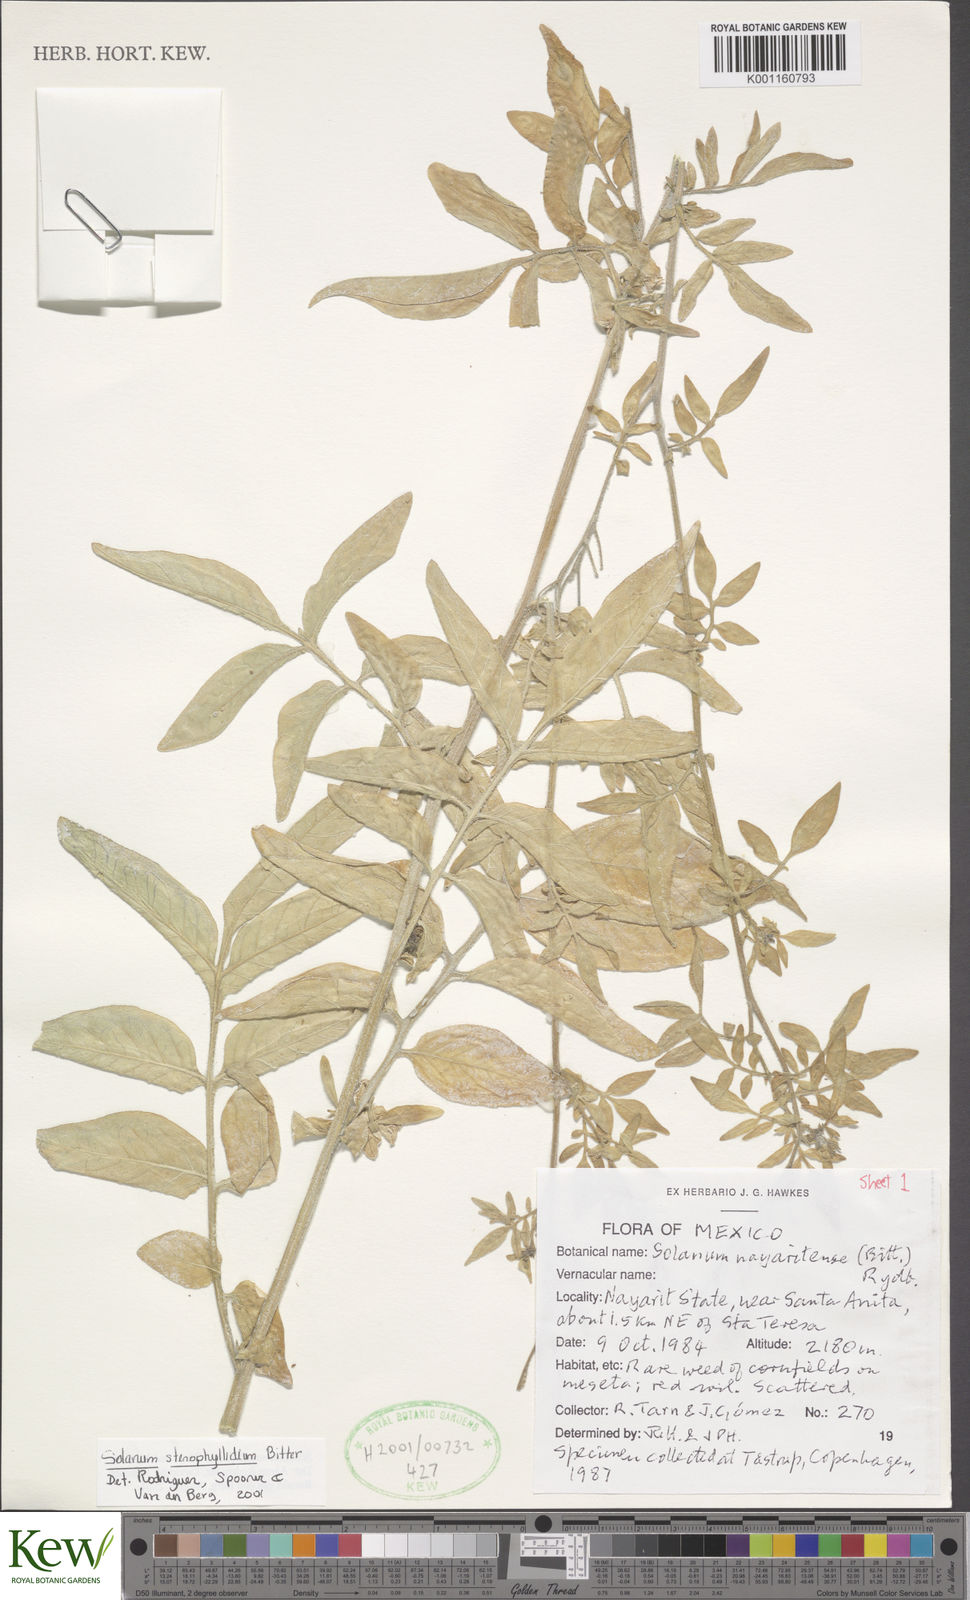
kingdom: Plantae
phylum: Tracheophyta
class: Magnoliopsida
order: Solanales
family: Solanaceae
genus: Solanum
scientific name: Solanum stenophyllidium
